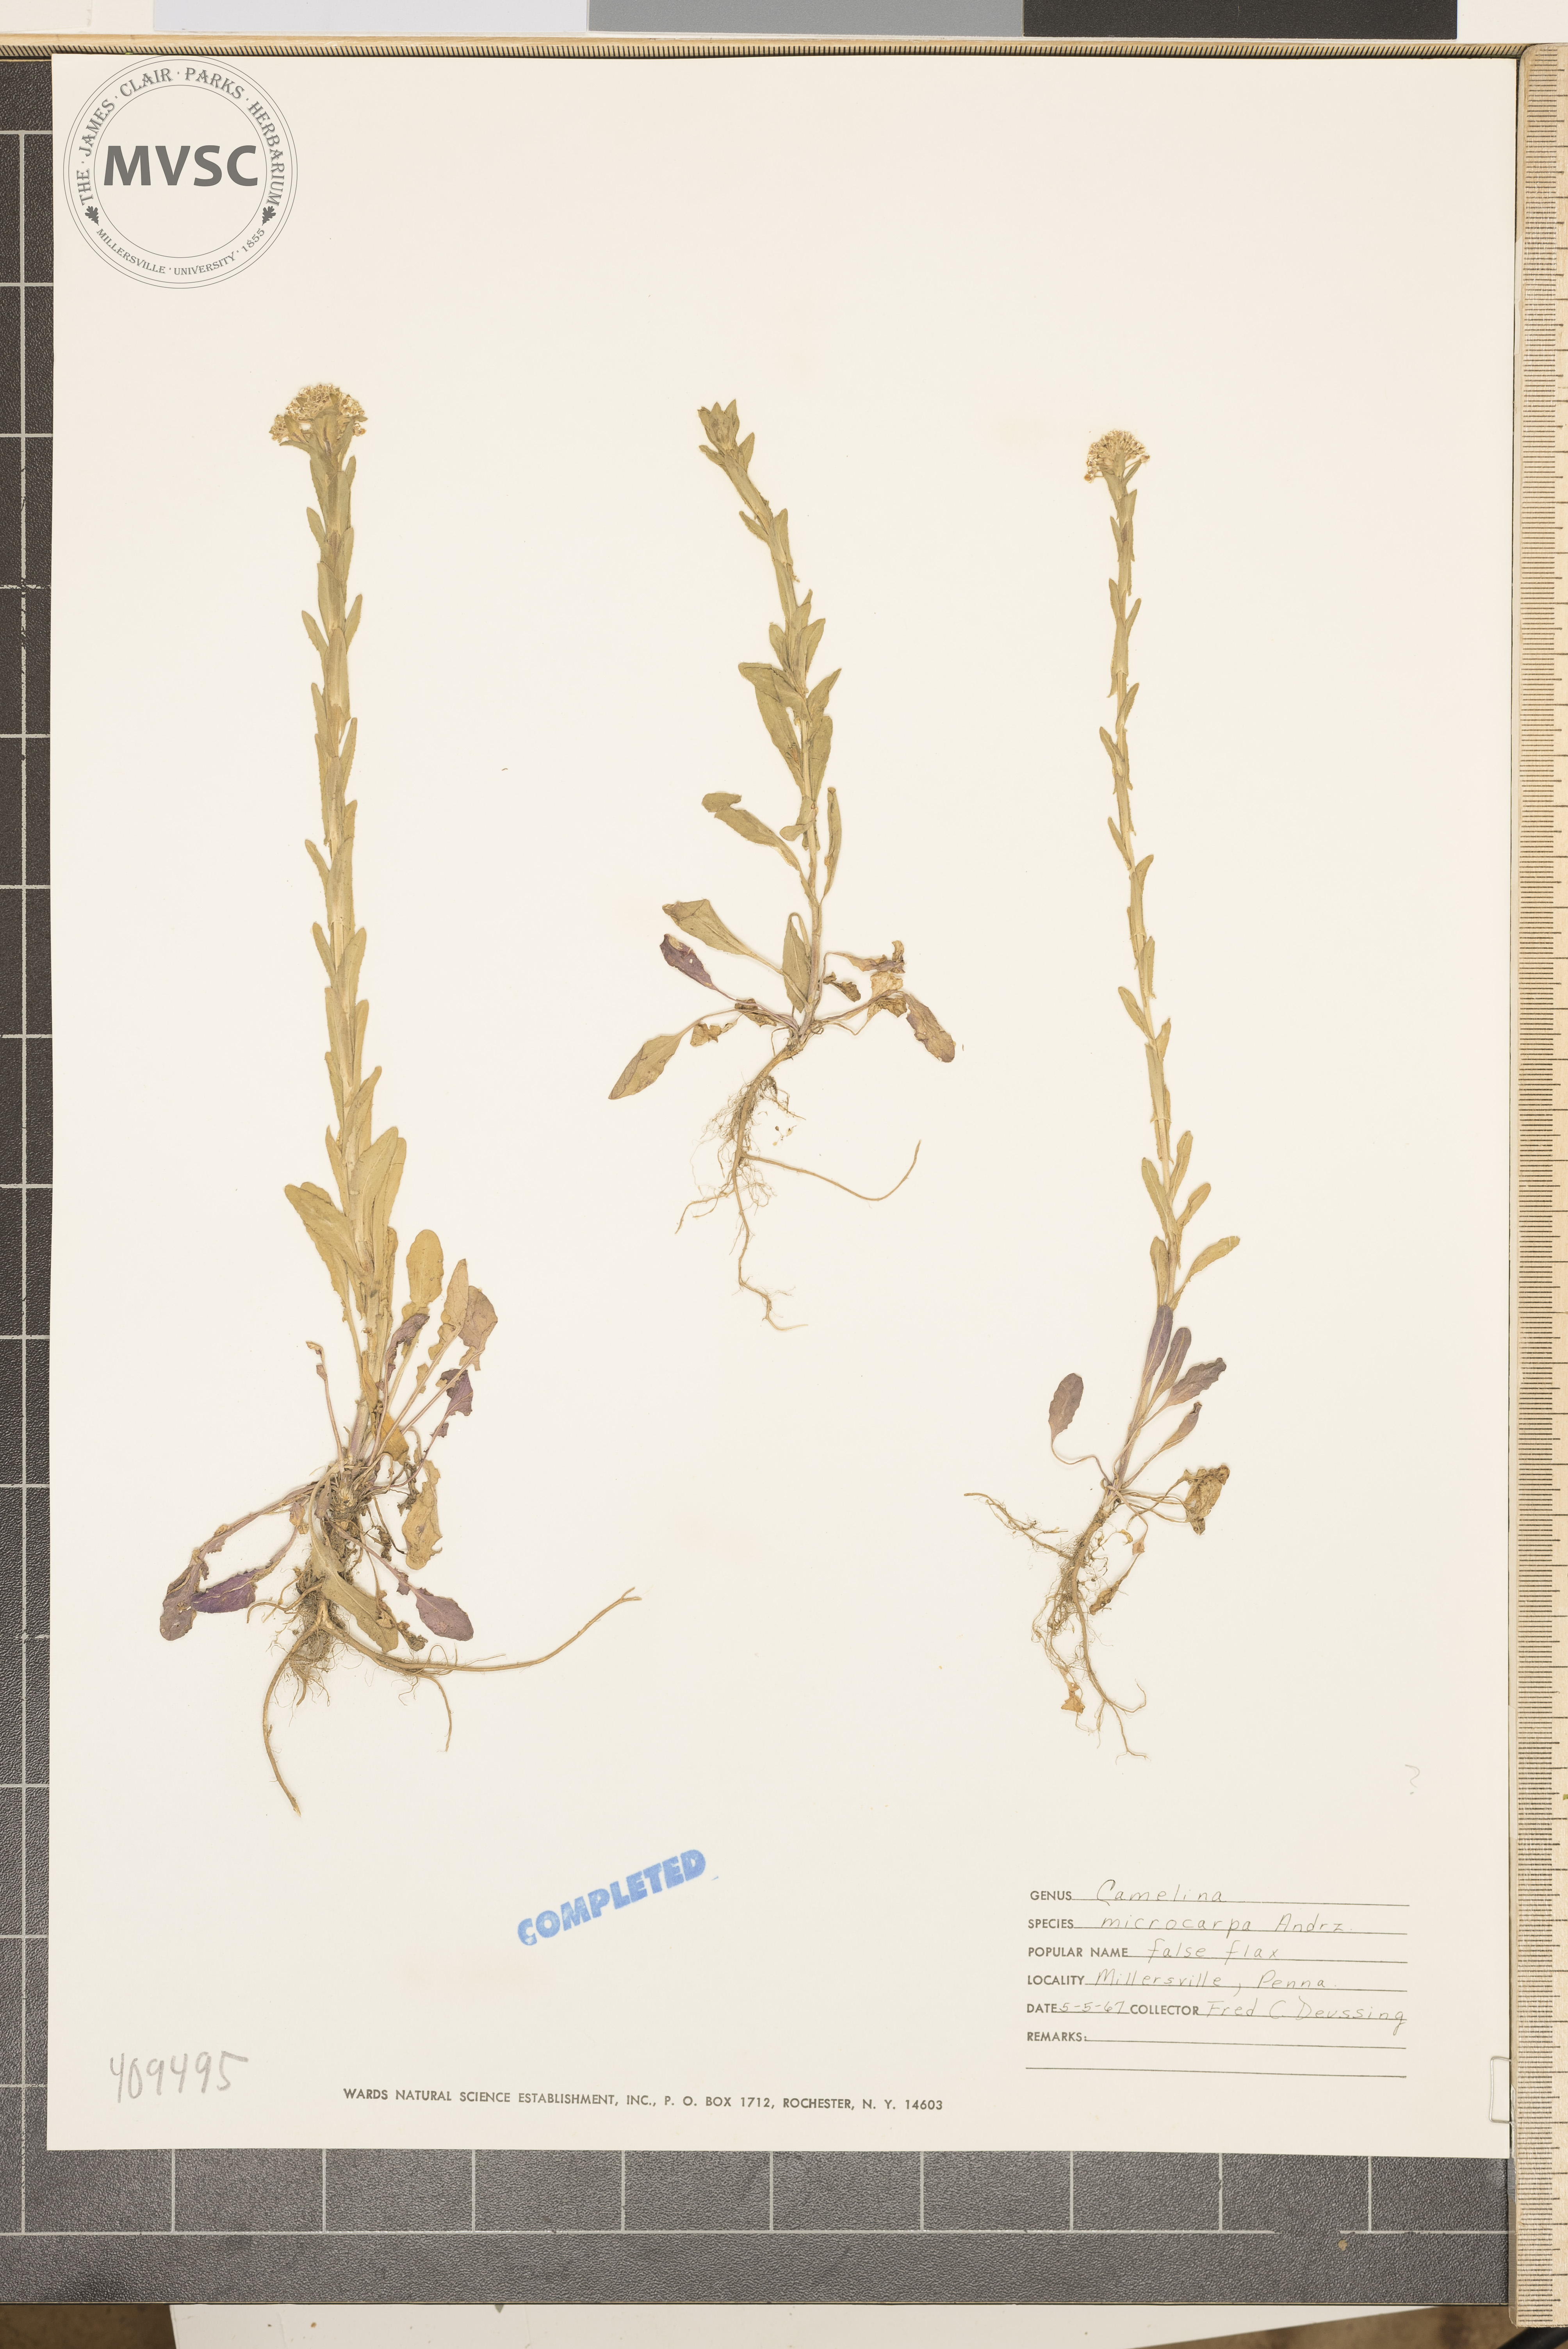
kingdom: Plantae
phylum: Tracheophyta
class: Magnoliopsida
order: Brassicales
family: Brassicaceae
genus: Camelina
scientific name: Camelina microcarpa
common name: Lesser gold-of-pleasure
